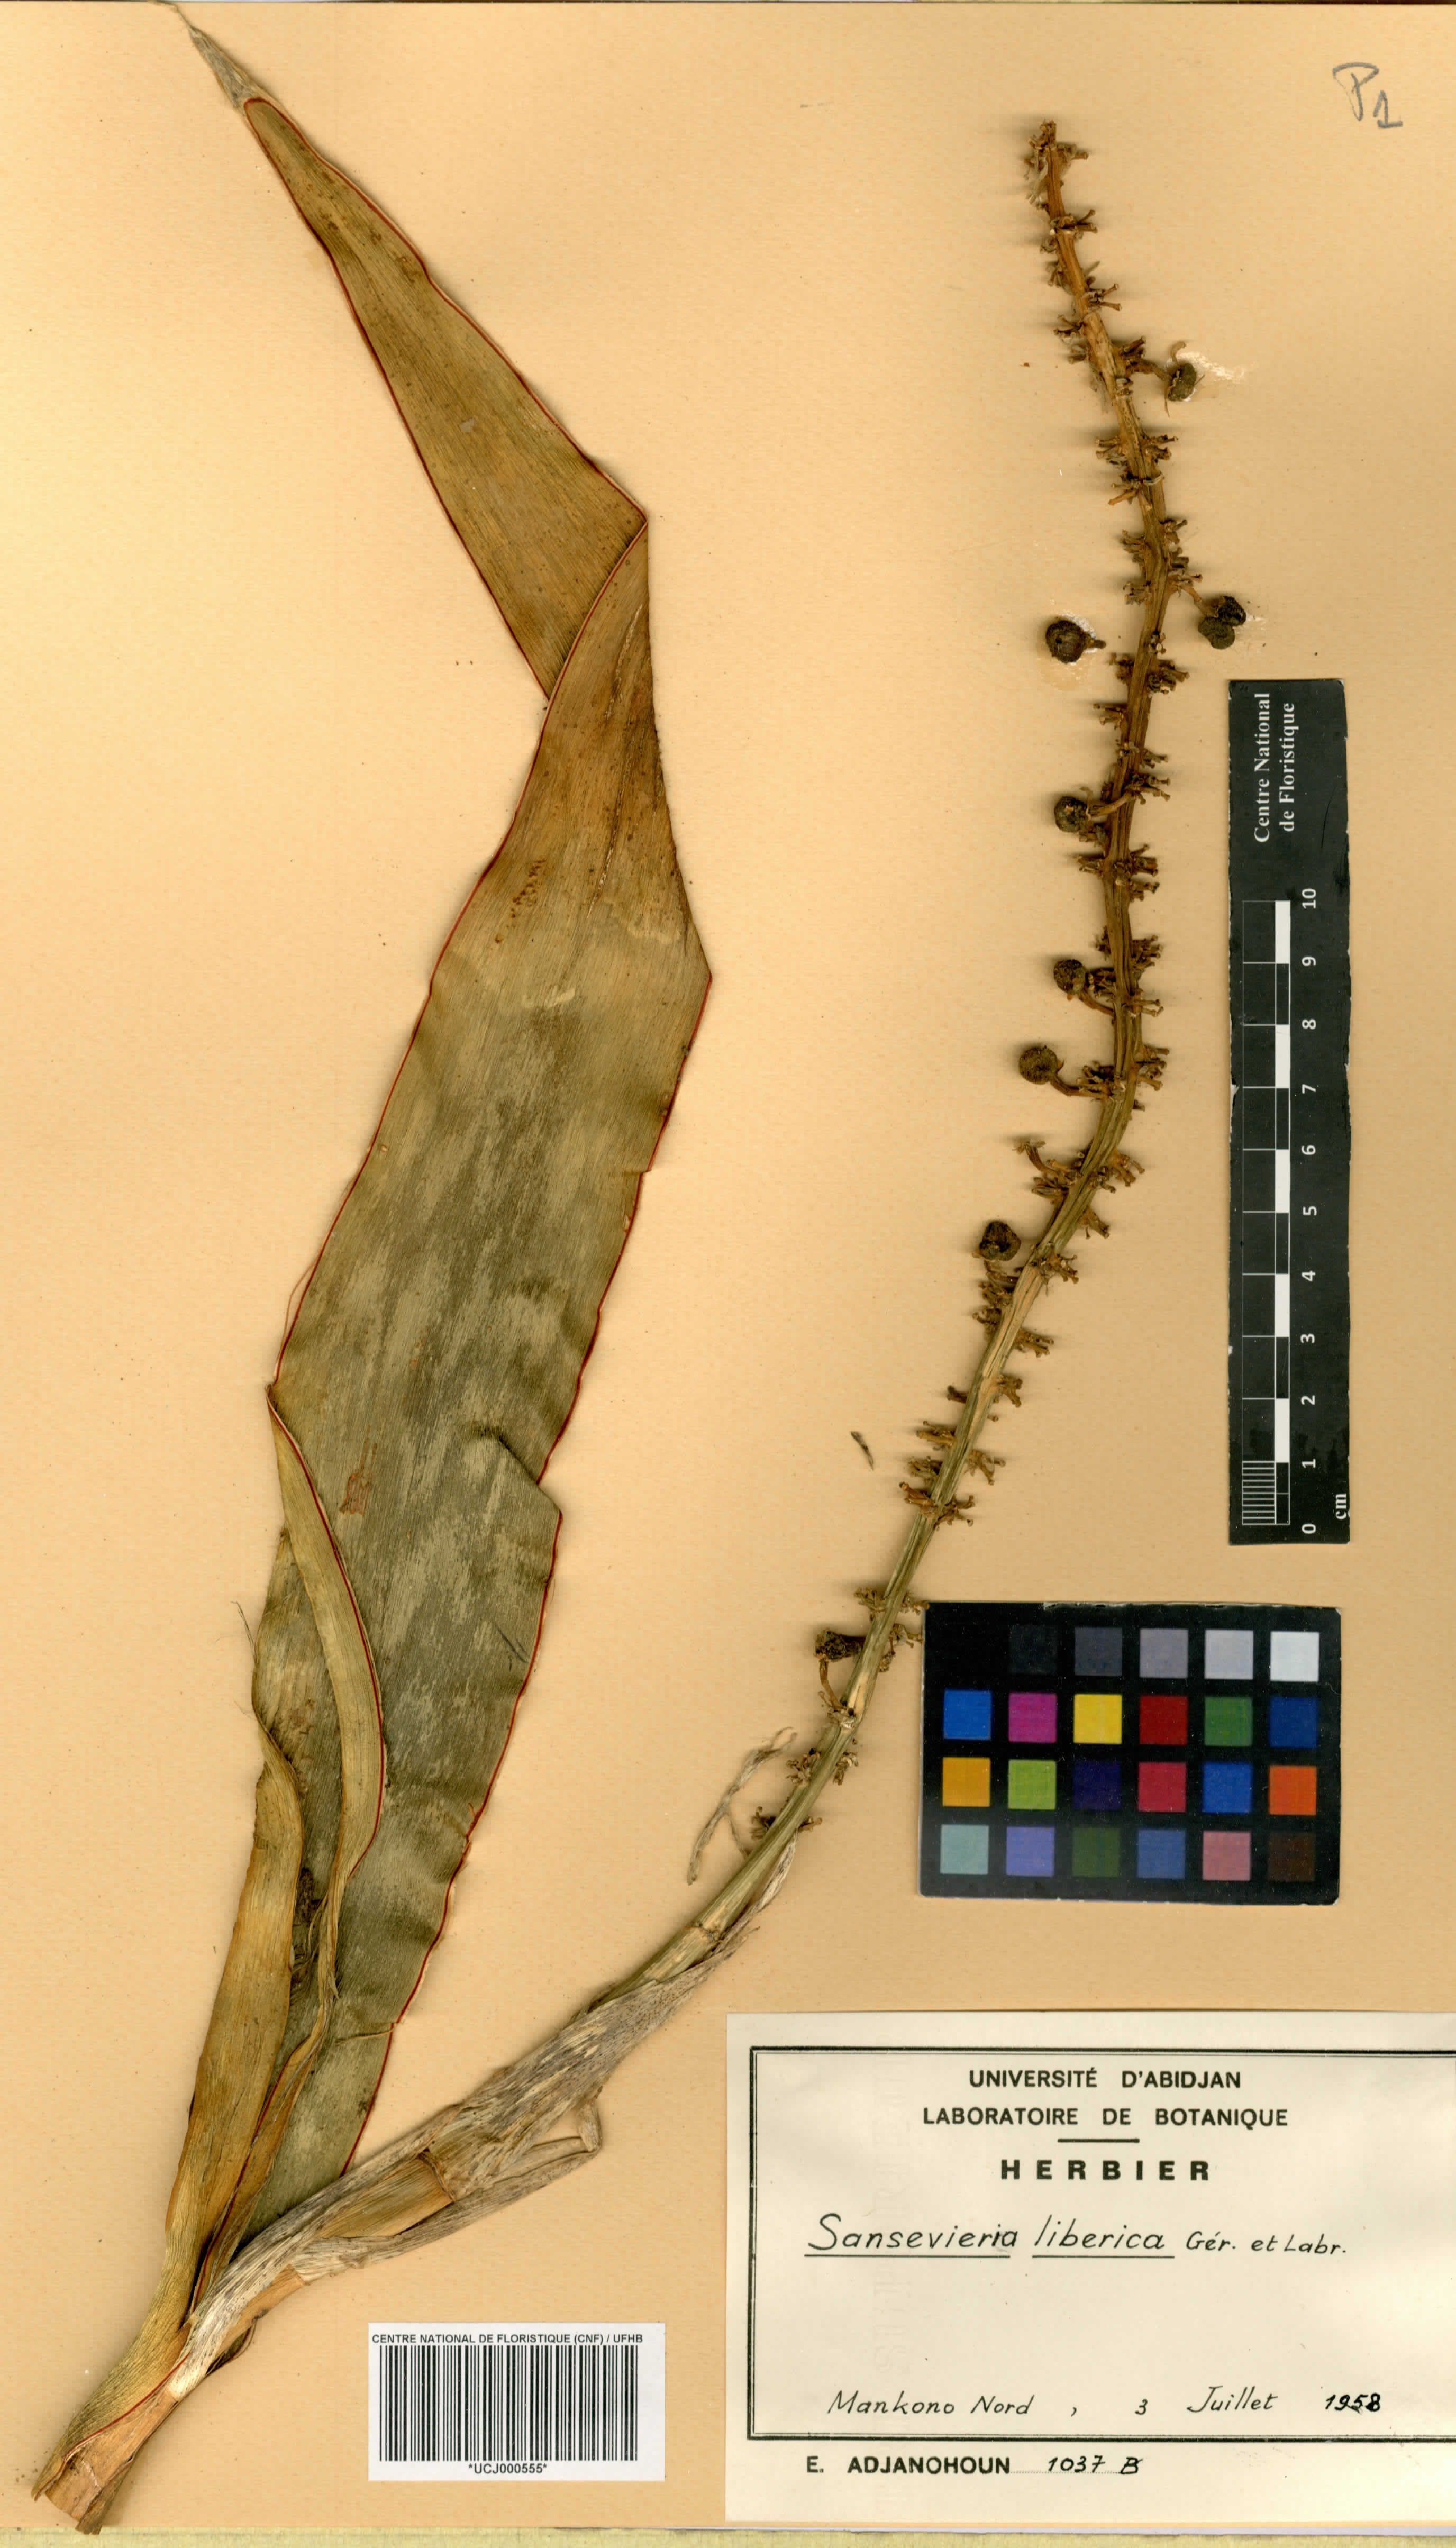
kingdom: Plantae
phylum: Tracheophyta
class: Liliopsida
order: Asparagales
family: Asparagaceae
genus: Dracaena
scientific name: Dracaena liberica
